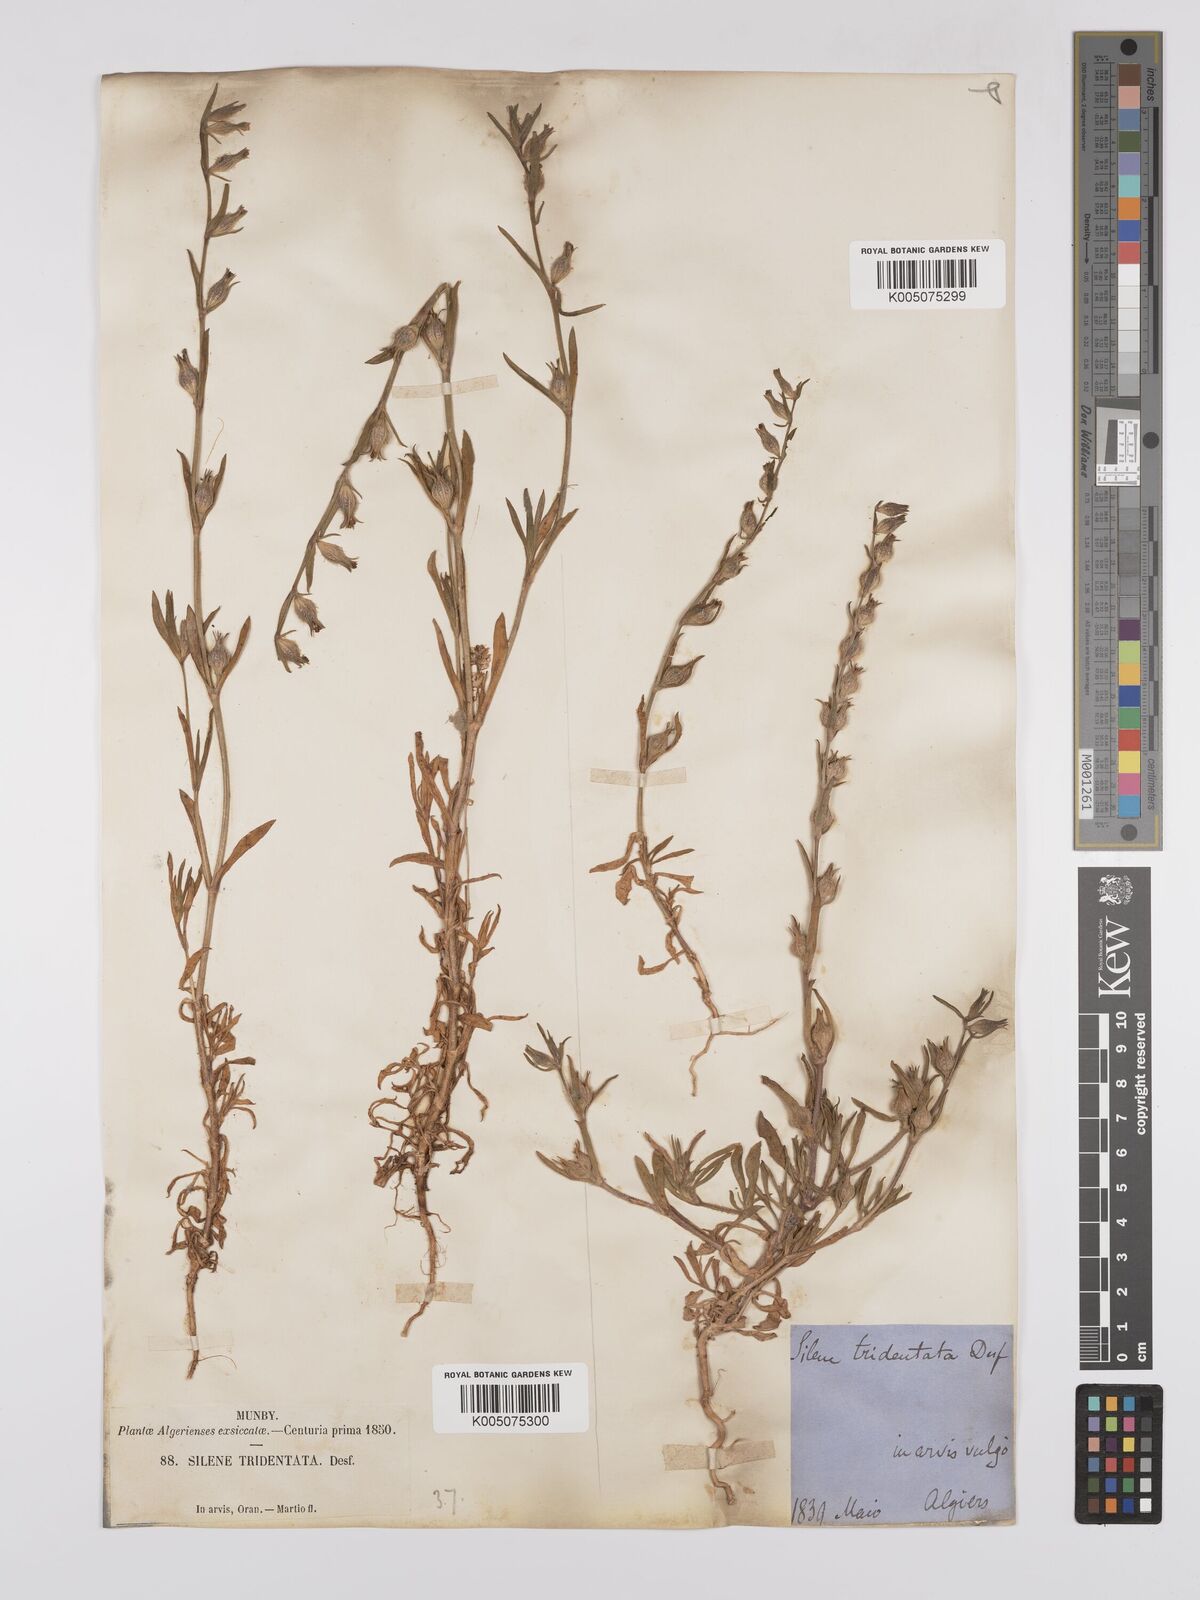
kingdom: Plantae
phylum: Tracheophyta
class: Magnoliopsida
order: Caryophyllales
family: Caryophyllaceae
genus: Silene
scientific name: Silene tridentata
